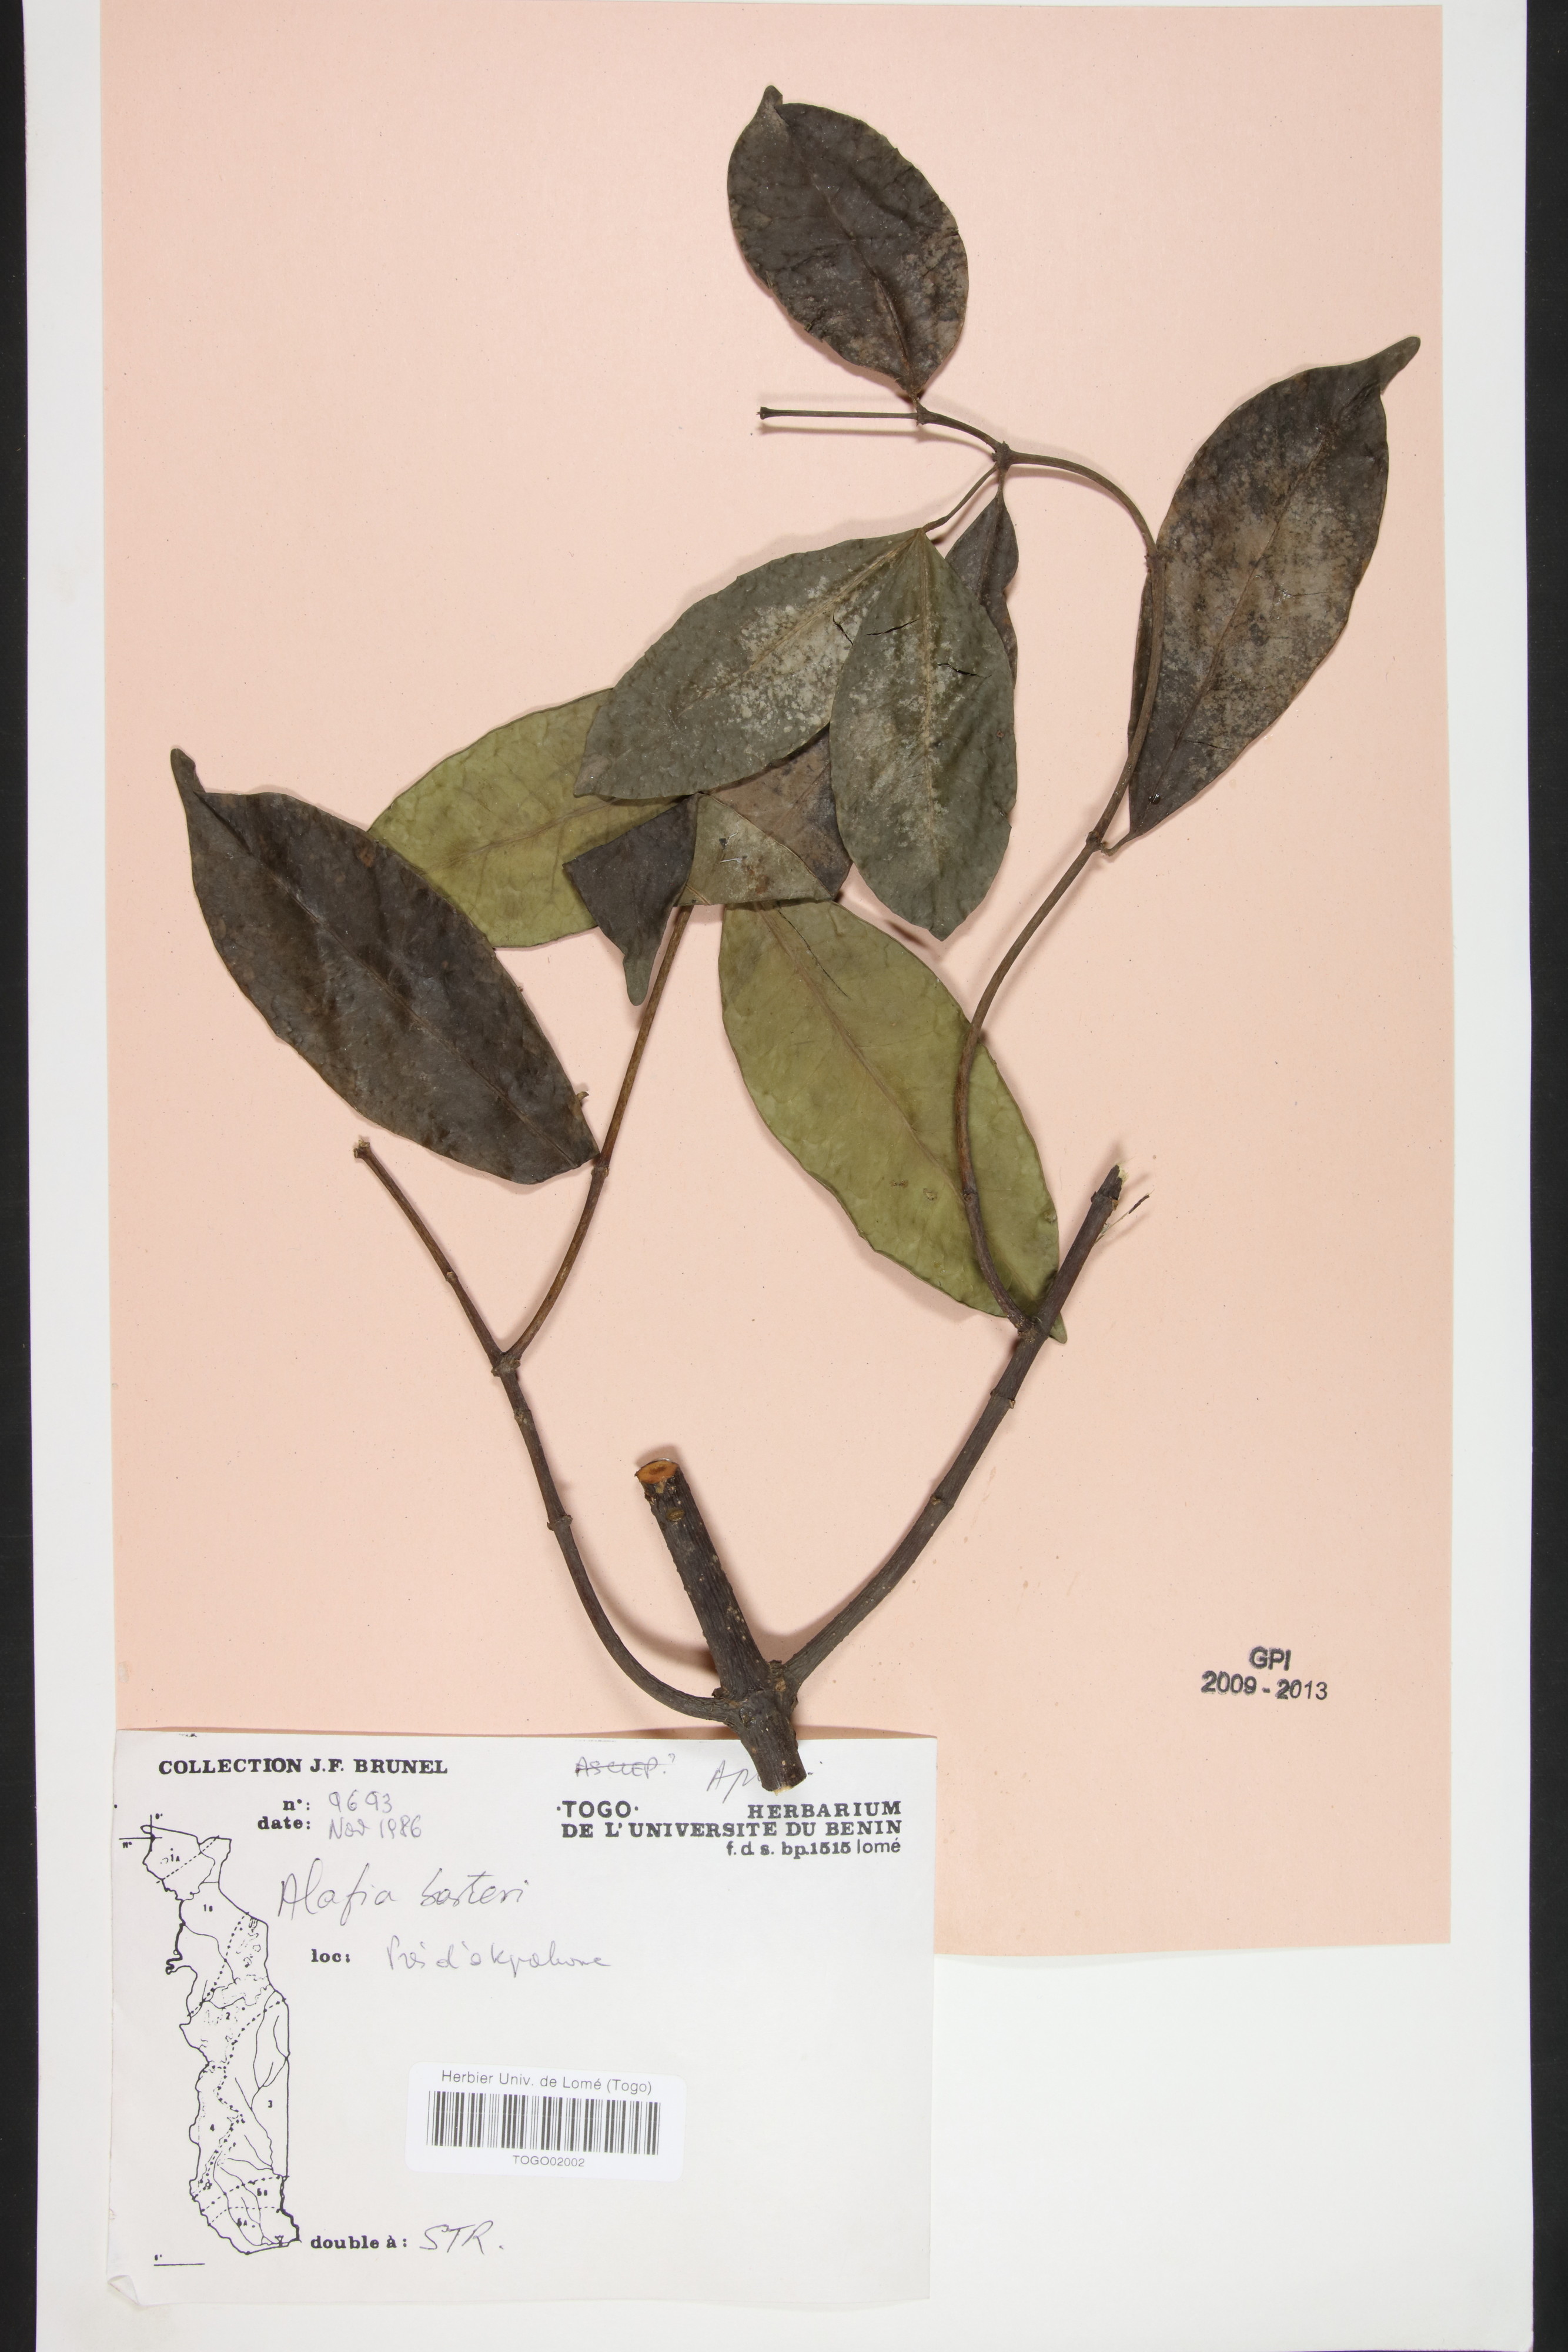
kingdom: Plantae
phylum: Tracheophyta
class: Magnoliopsida
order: Gentianales
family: Apocynaceae
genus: Alafia
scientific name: Alafia barteri
